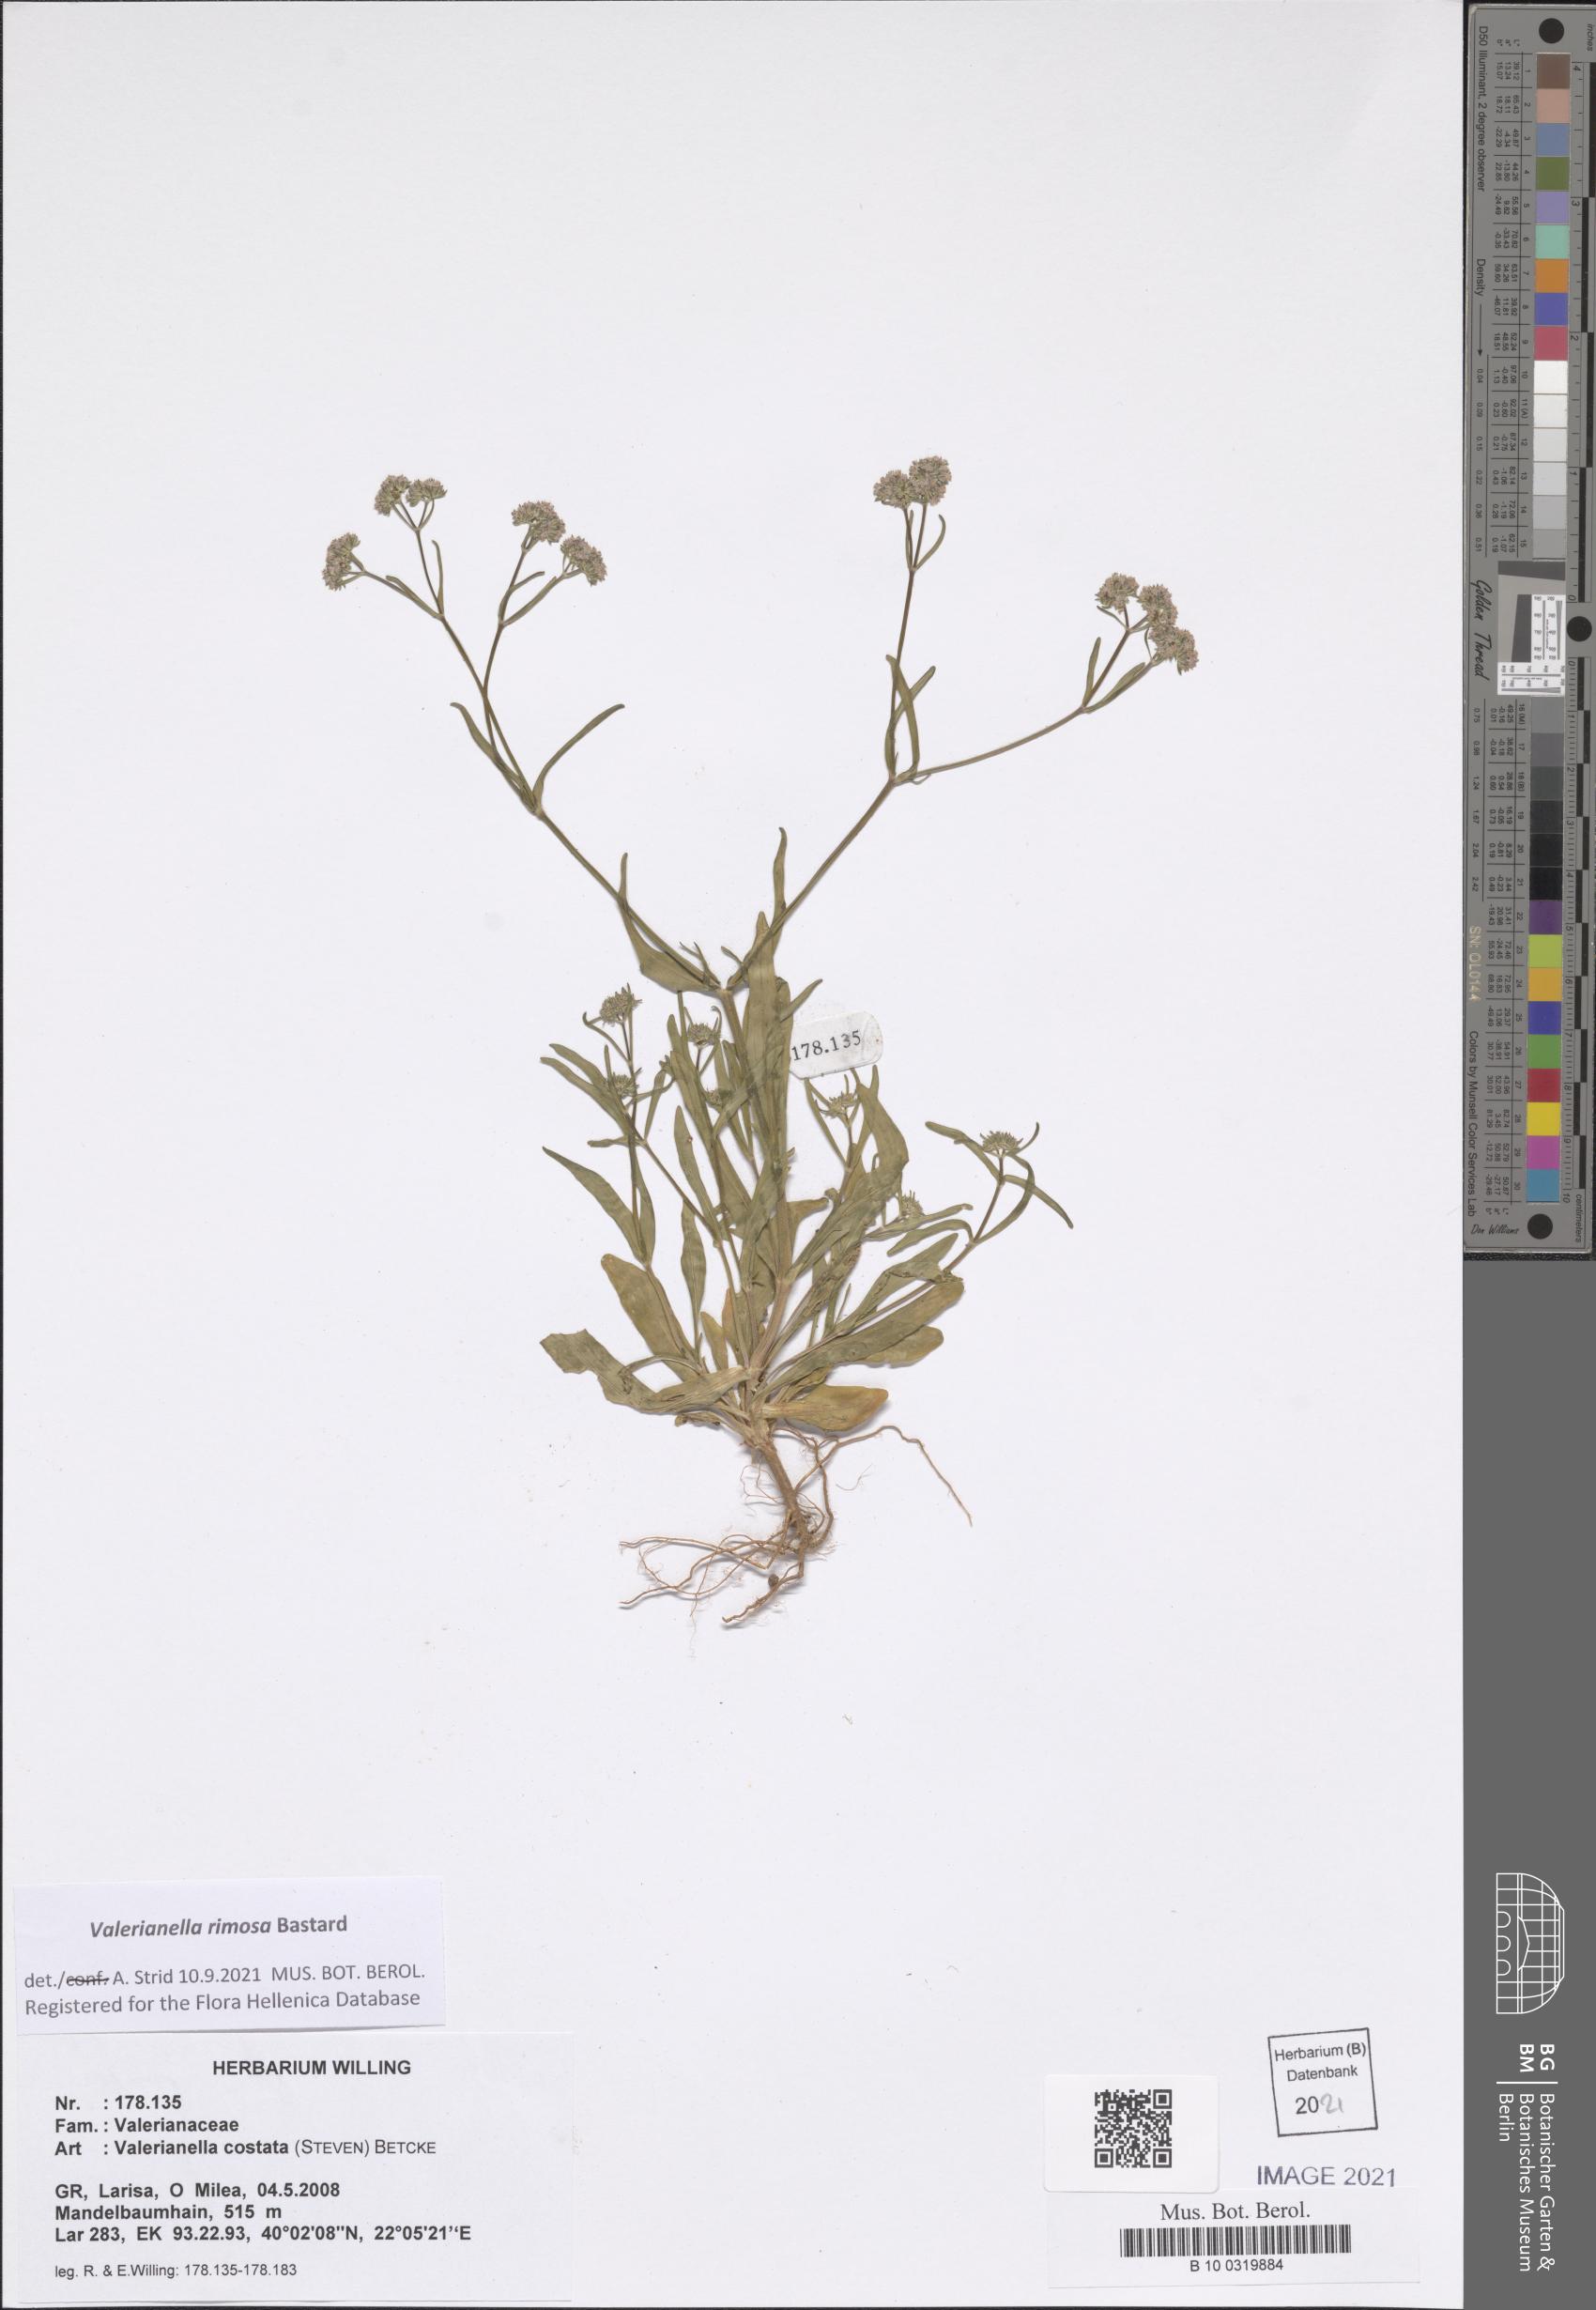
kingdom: Plantae
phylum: Tracheophyta
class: Magnoliopsida
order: Dipsacales
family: Caprifoliaceae
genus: Valerianella
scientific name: Valerianella rimosa
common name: Broad-fruited cornsalad
